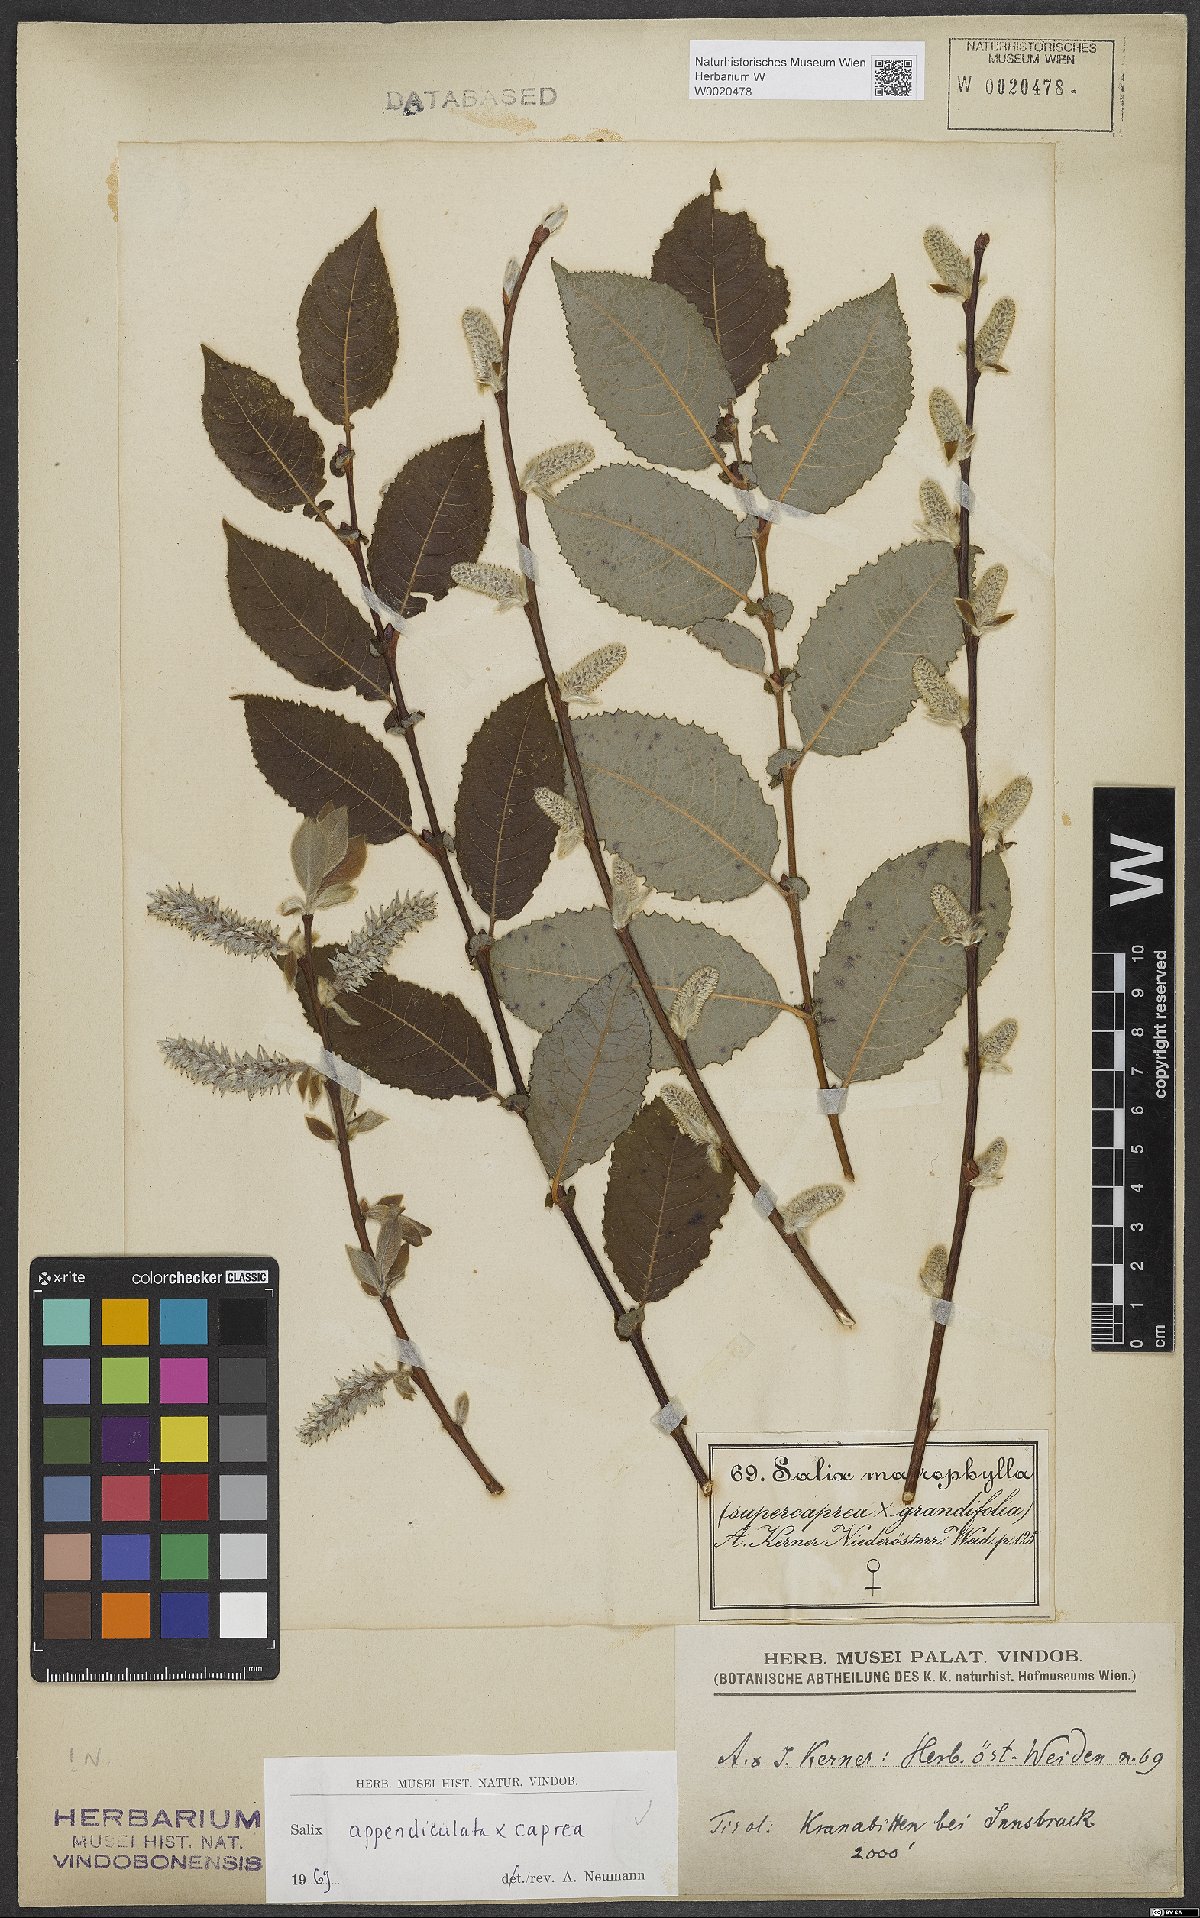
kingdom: Plantae
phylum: Tracheophyta
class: Magnoliopsida
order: Malpighiales
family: Salicaceae
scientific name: Salicaceae
